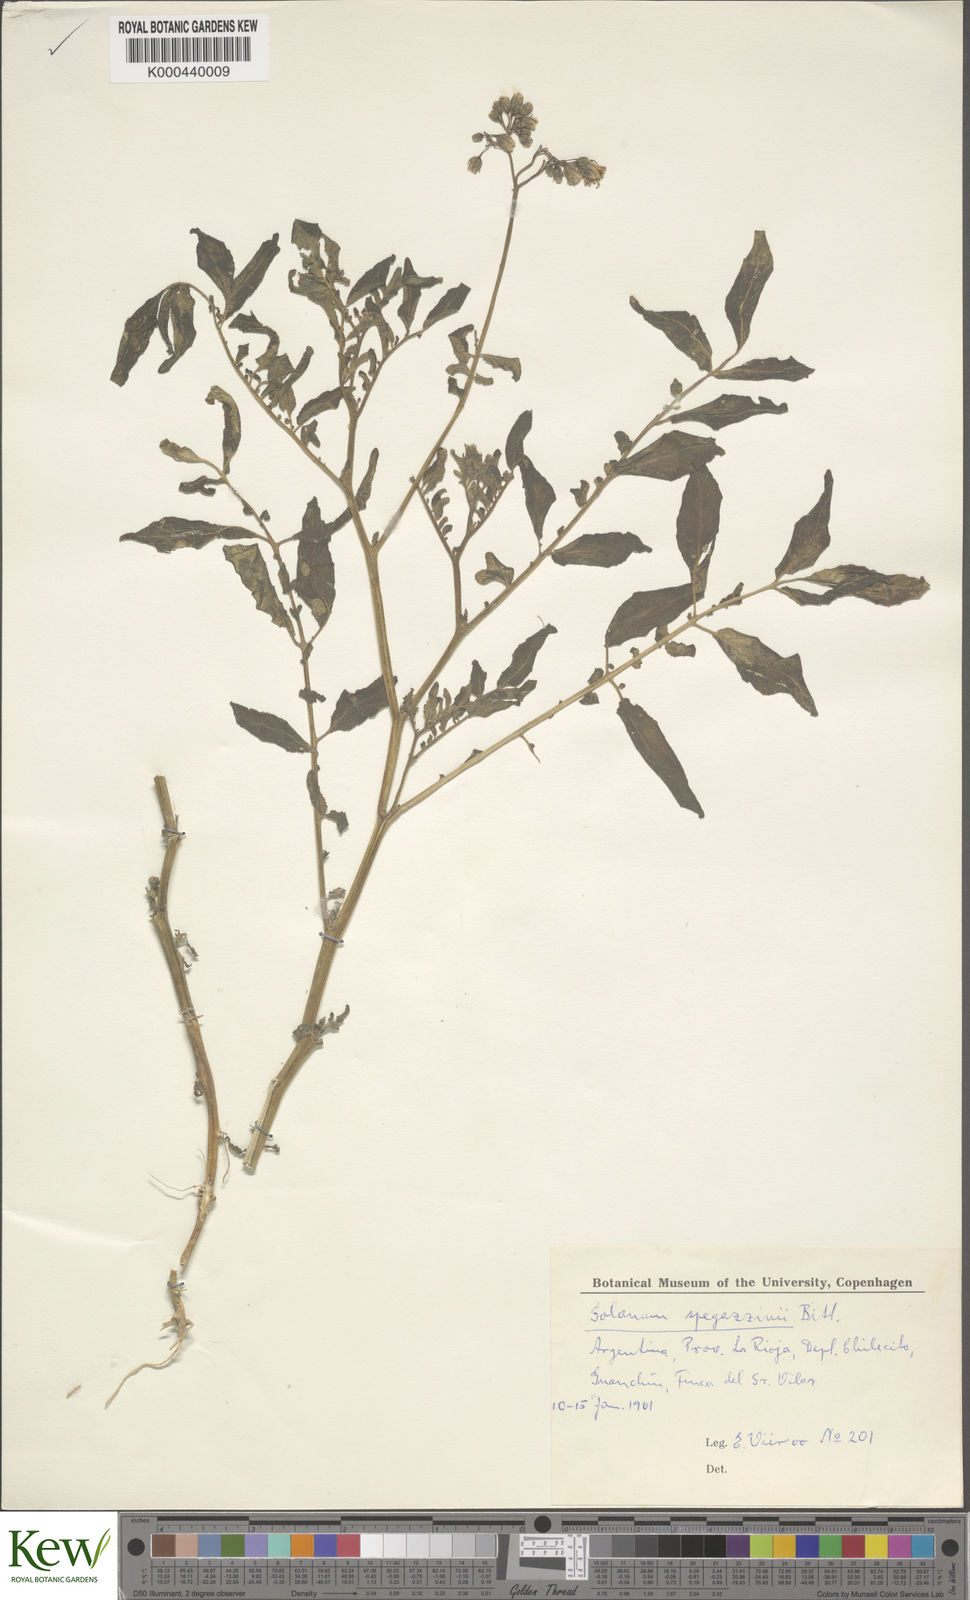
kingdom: Plantae
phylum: Tracheophyta
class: Magnoliopsida
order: Solanales
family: Solanaceae
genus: Solanum
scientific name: Solanum brevicaule
